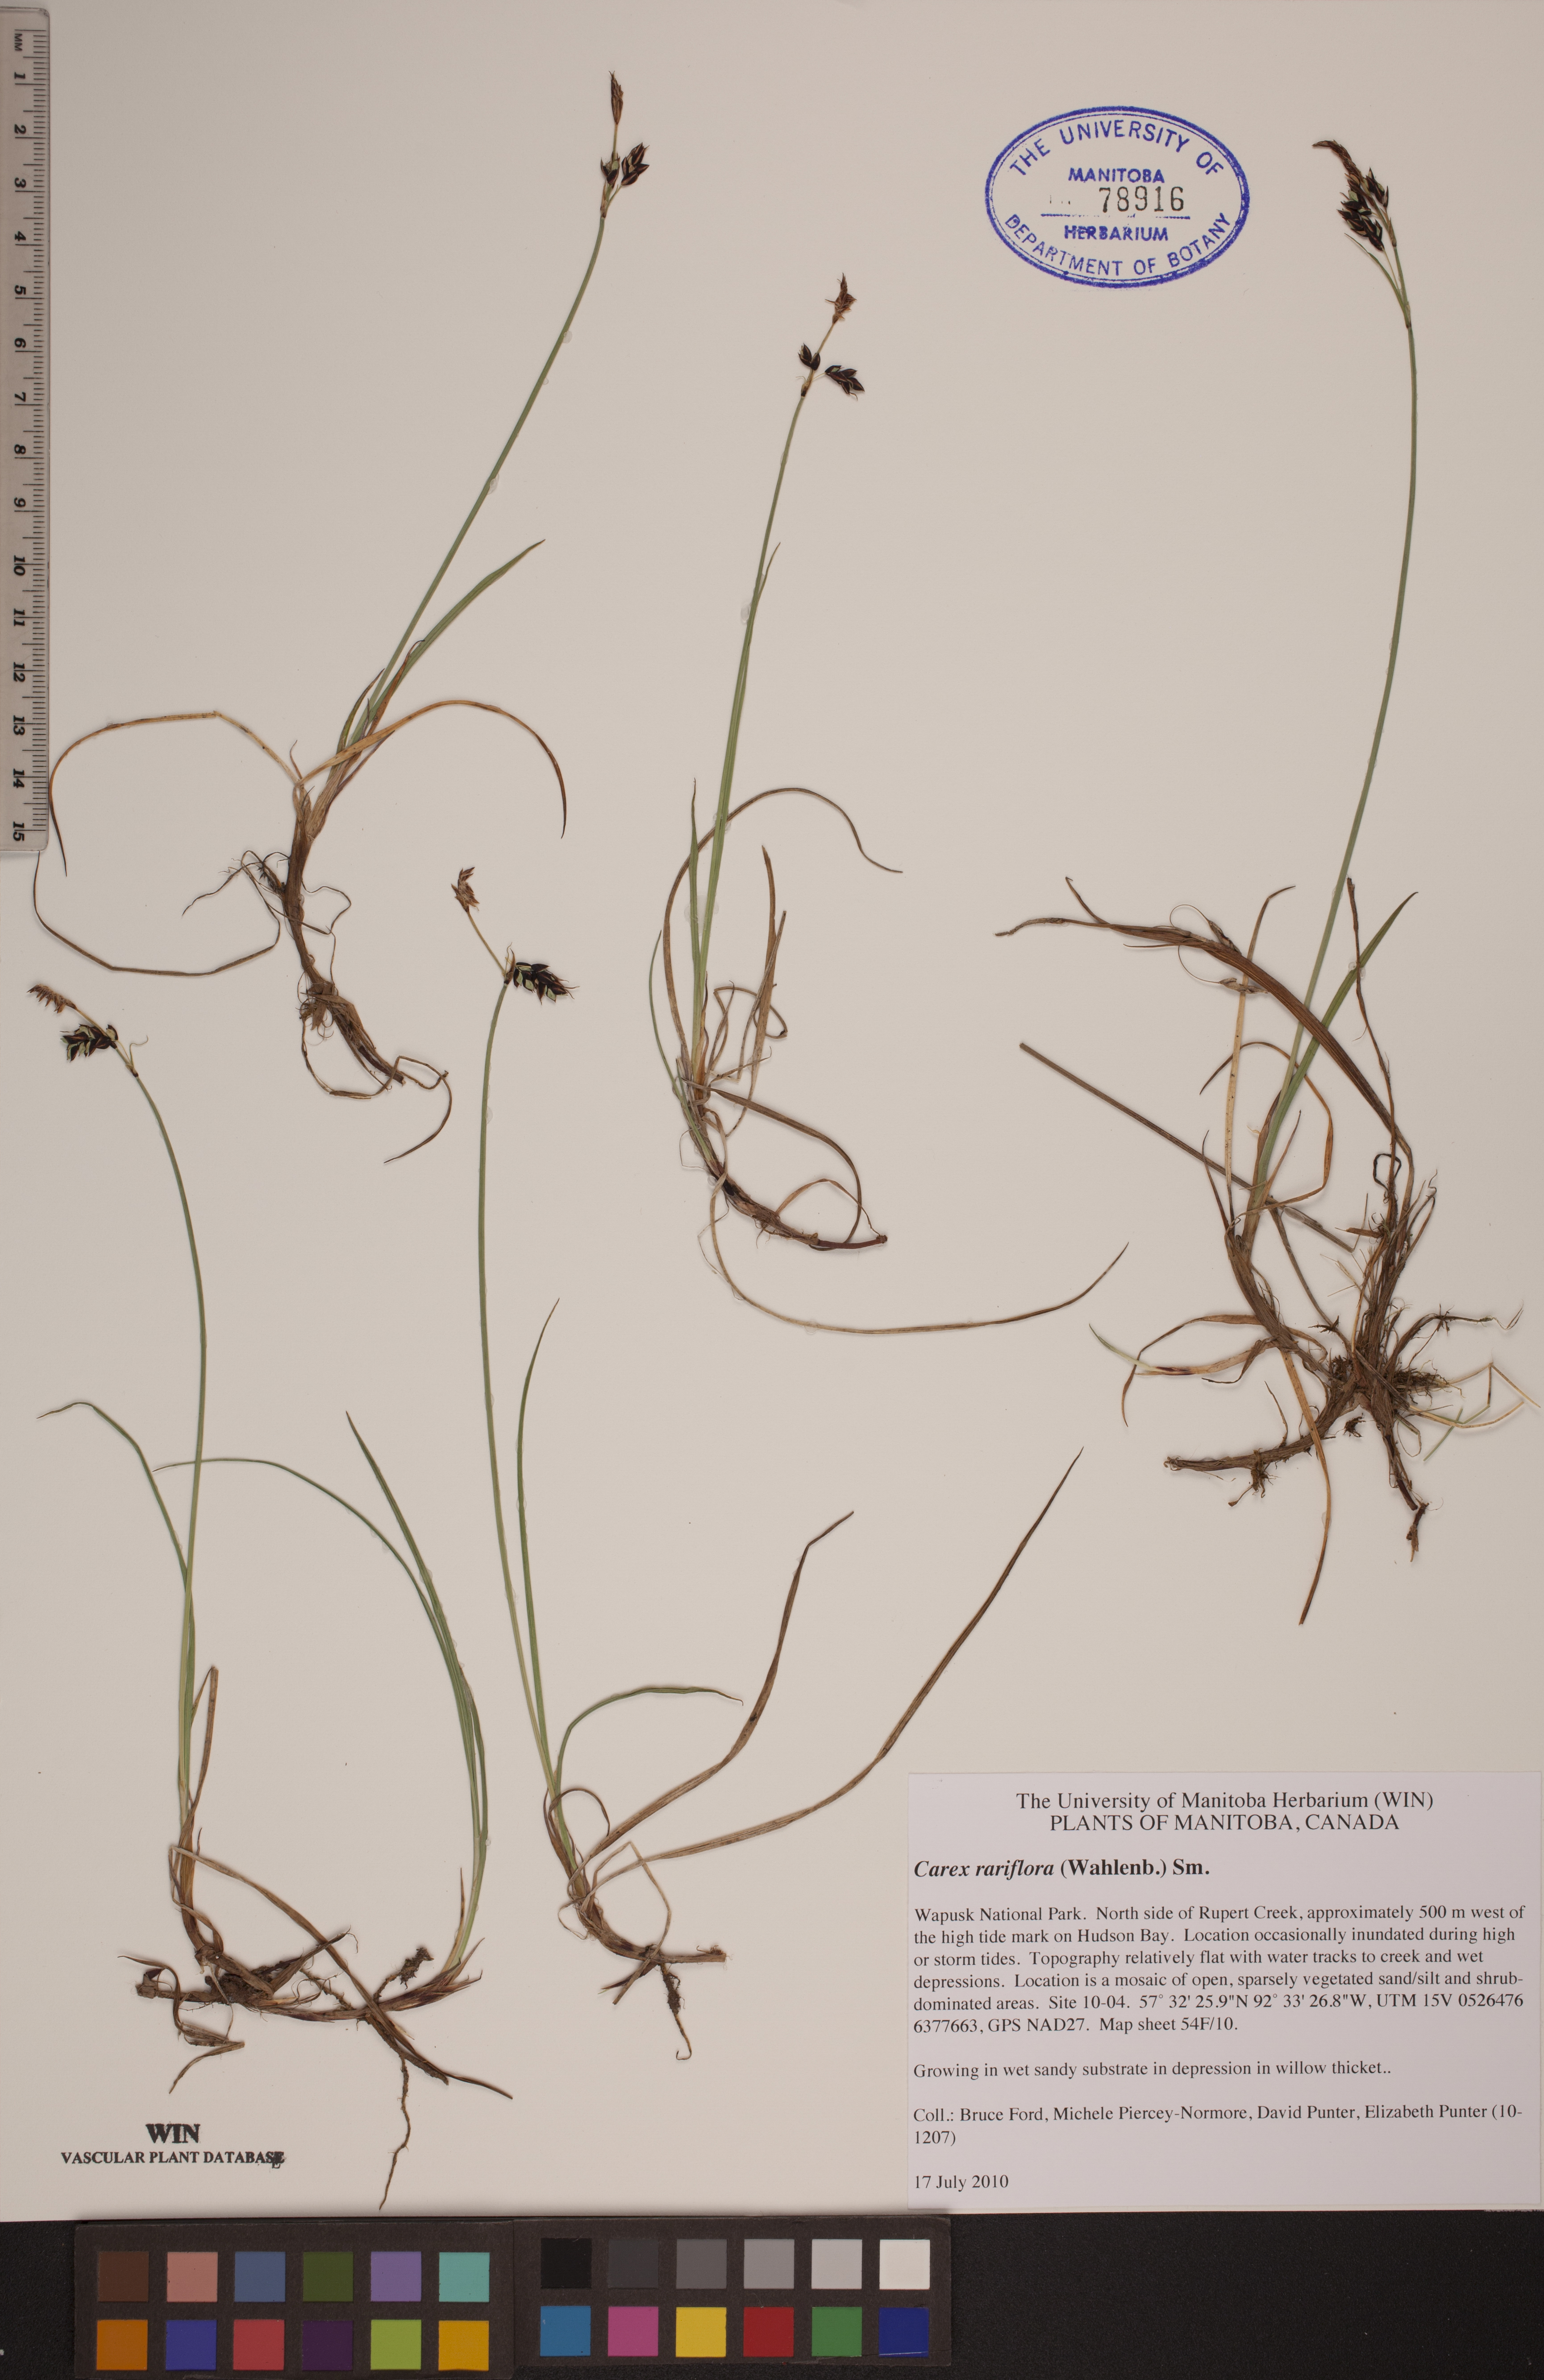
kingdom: Plantae
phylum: Tracheophyta
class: Liliopsida
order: Poales
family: Cyperaceae
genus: Carex
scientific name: Carex rariflora
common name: Loose-flowered alpine sedge
